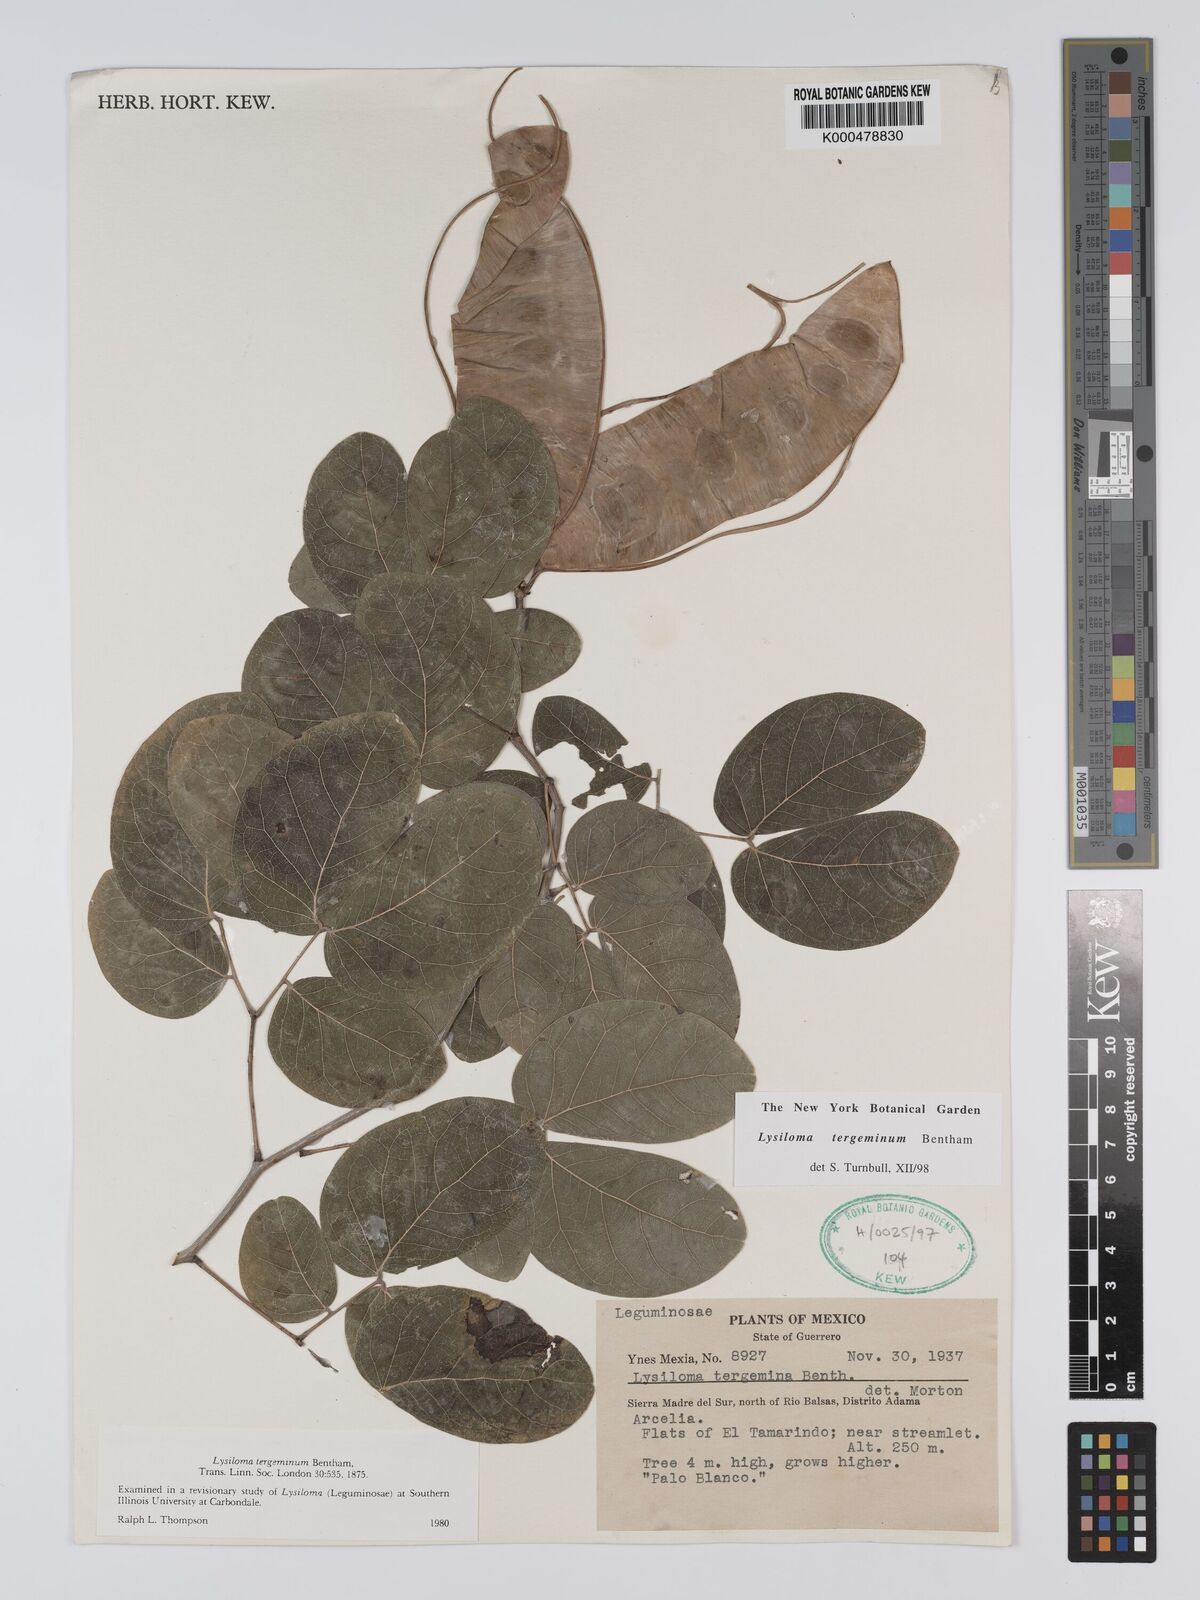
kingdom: Plantae
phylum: Tracheophyta
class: Magnoliopsida
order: Fabales
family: Fabaceae
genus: Lysiloma
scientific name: Lysiloma tergeminum
